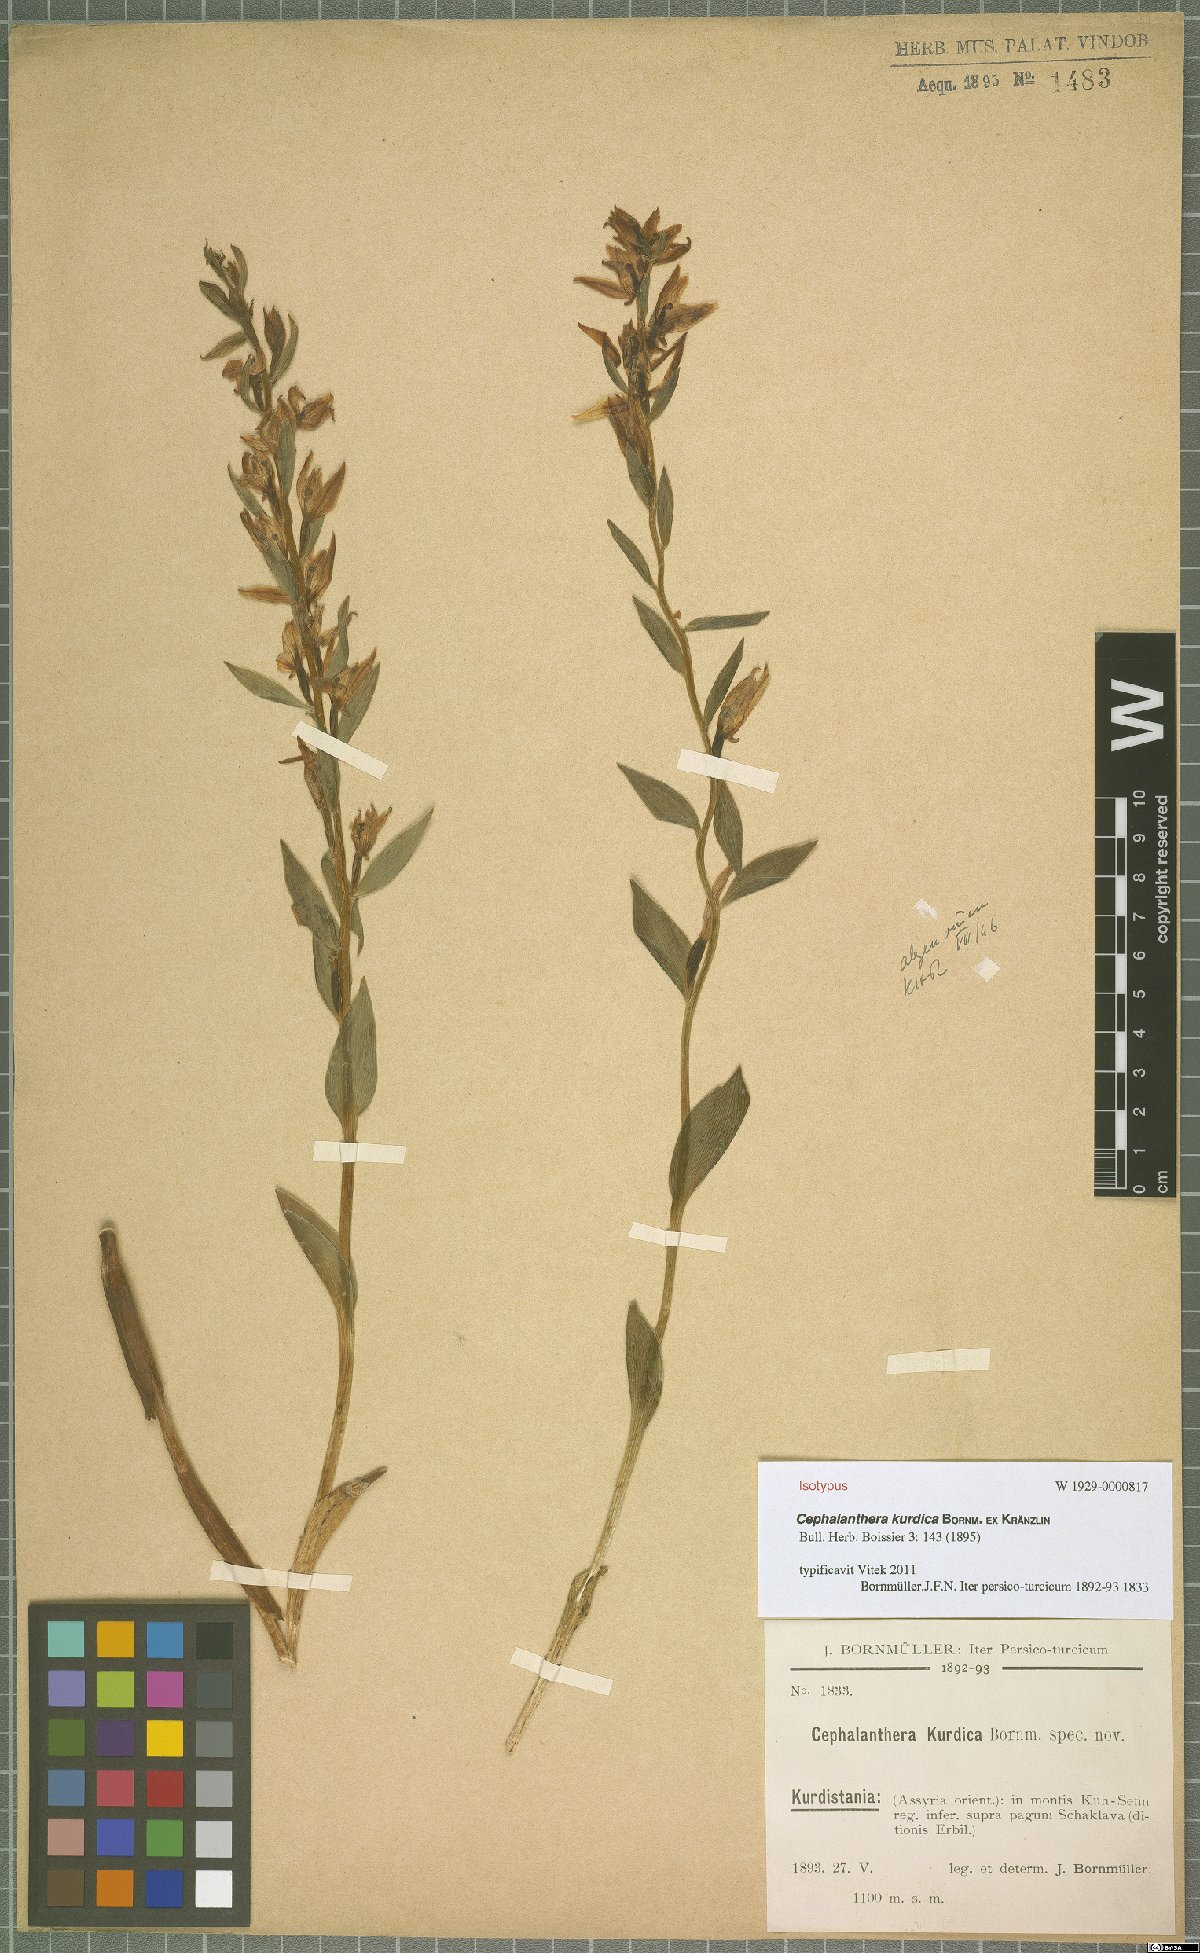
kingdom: Plantae
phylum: Tracheophyta
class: Liliopsida
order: Asparagales
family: Orchidaceae
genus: Cephalanthera
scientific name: Cephalanthera kurdica
